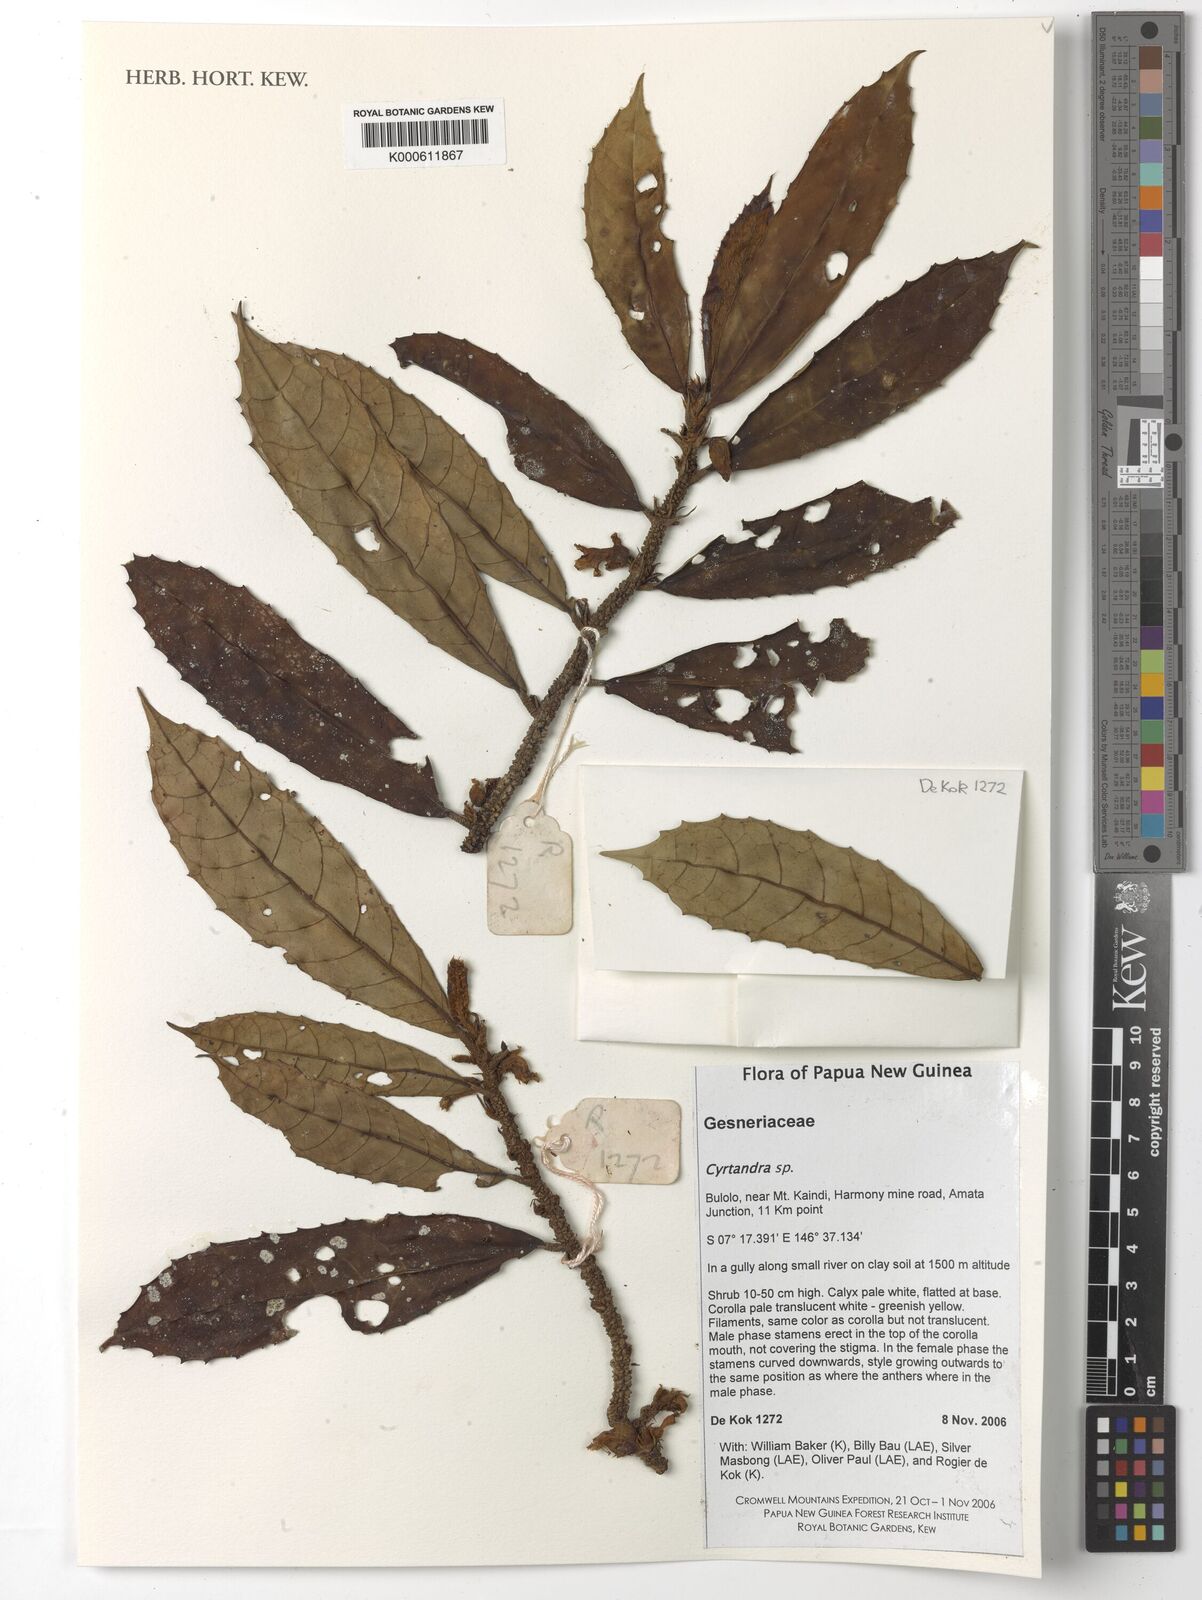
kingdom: Plantae
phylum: Tracheophyta
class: Magnoliopsida
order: Lamiales
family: Gesneriaceae
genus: Cyrtandra
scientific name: Cyrtandra
